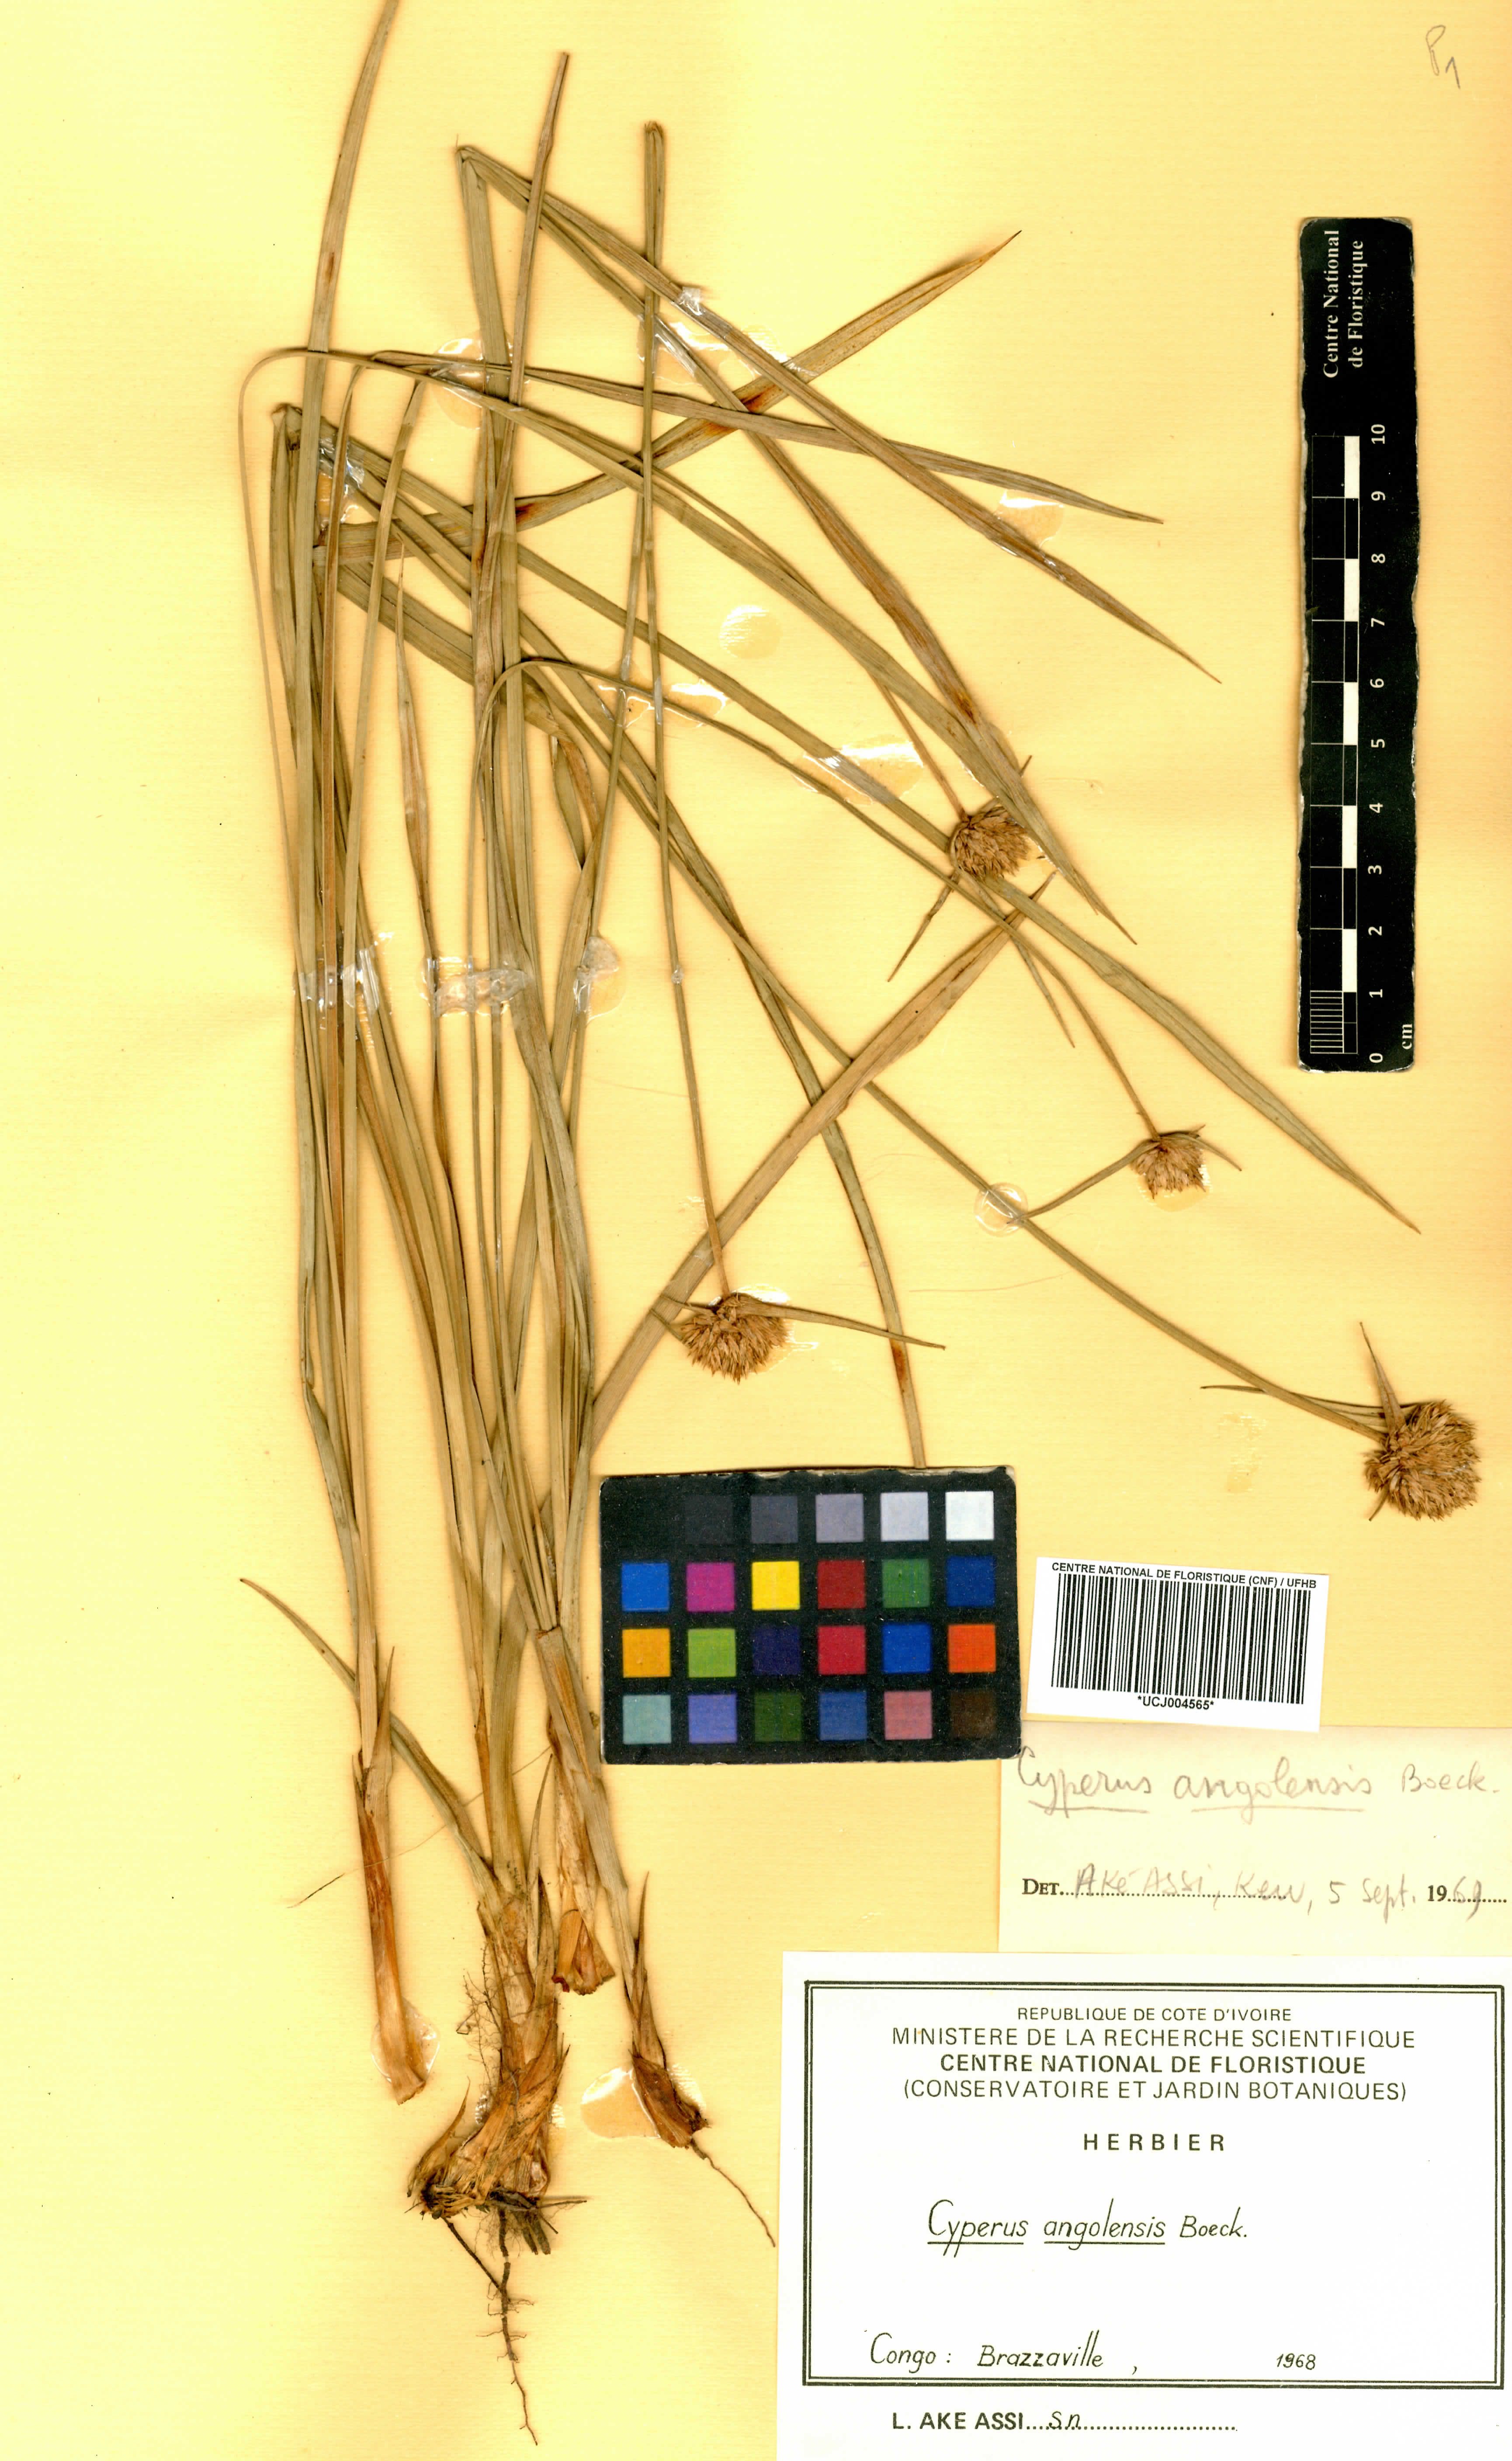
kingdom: Plantae
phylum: Tracheophyta
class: Liliopsida
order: Poales
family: Cyperaceae
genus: Cyperus
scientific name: Cyperus angolensis
